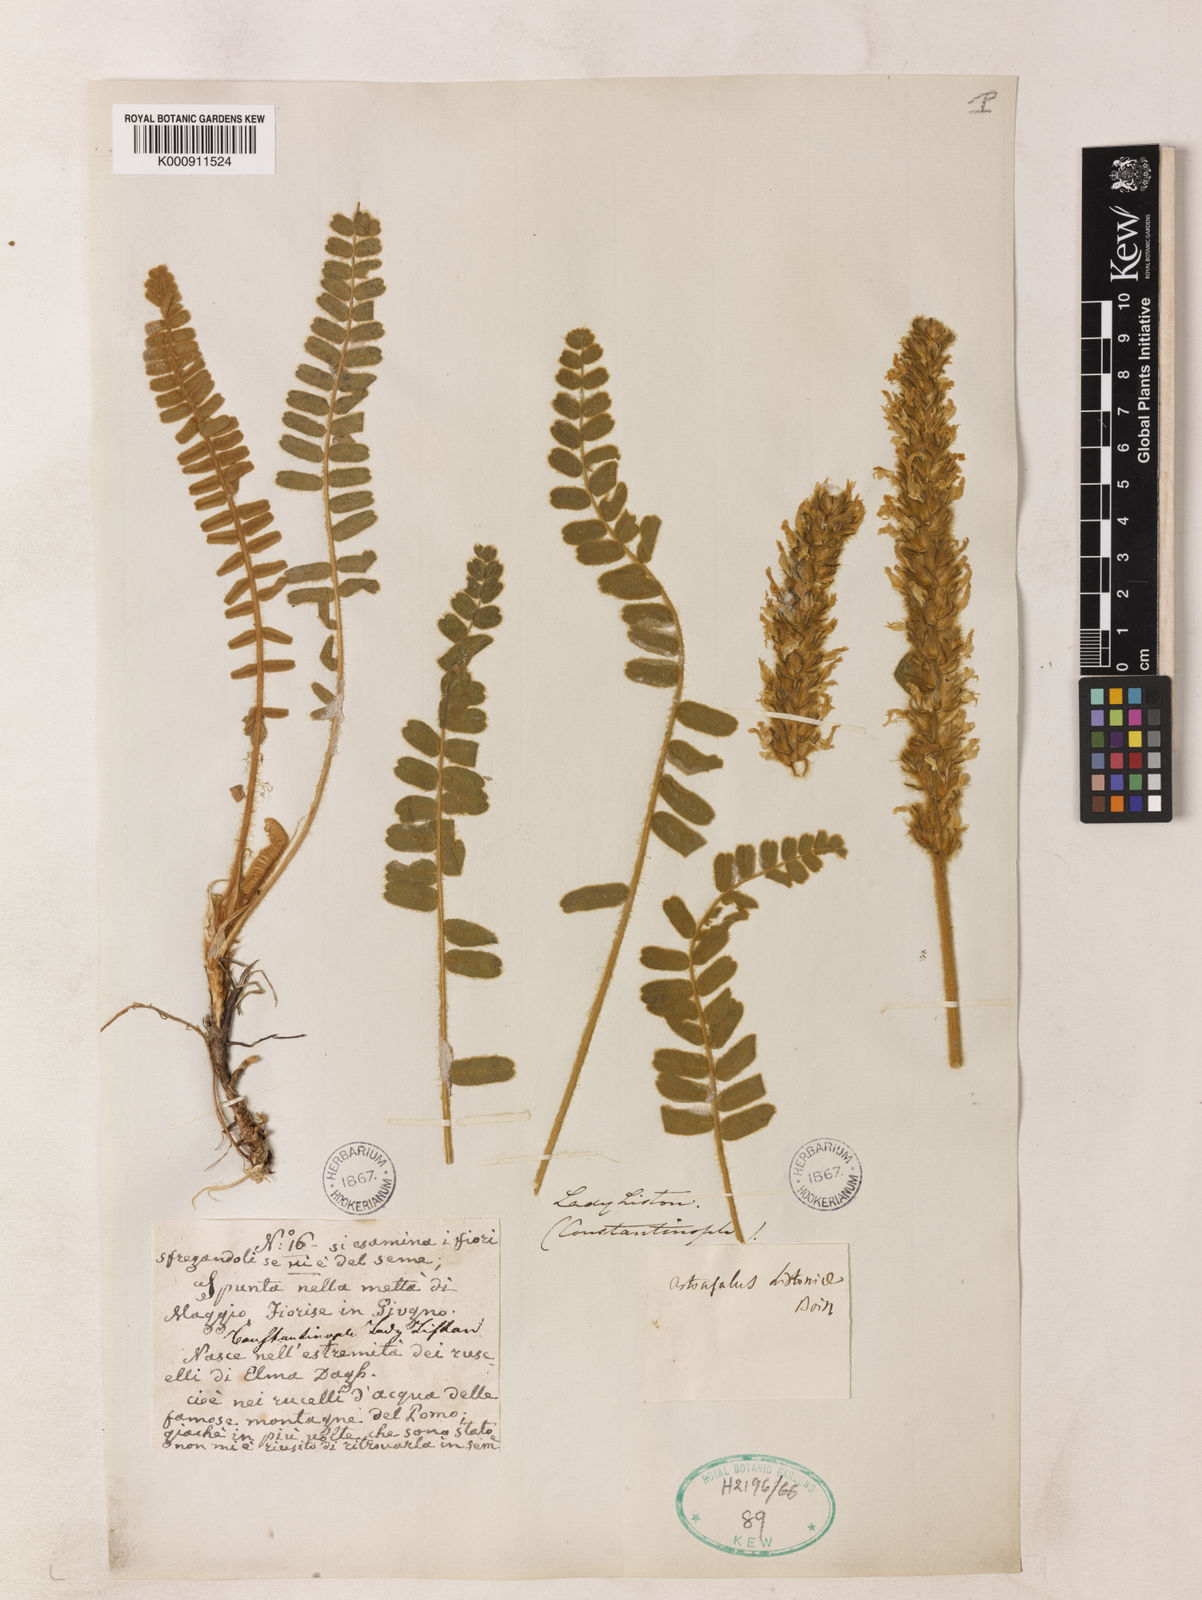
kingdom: Plantae
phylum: Tracheophyta
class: Magnoliopsida
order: Fabales
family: Fabaceae
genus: Astragalus
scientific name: Astragalus listoniae
